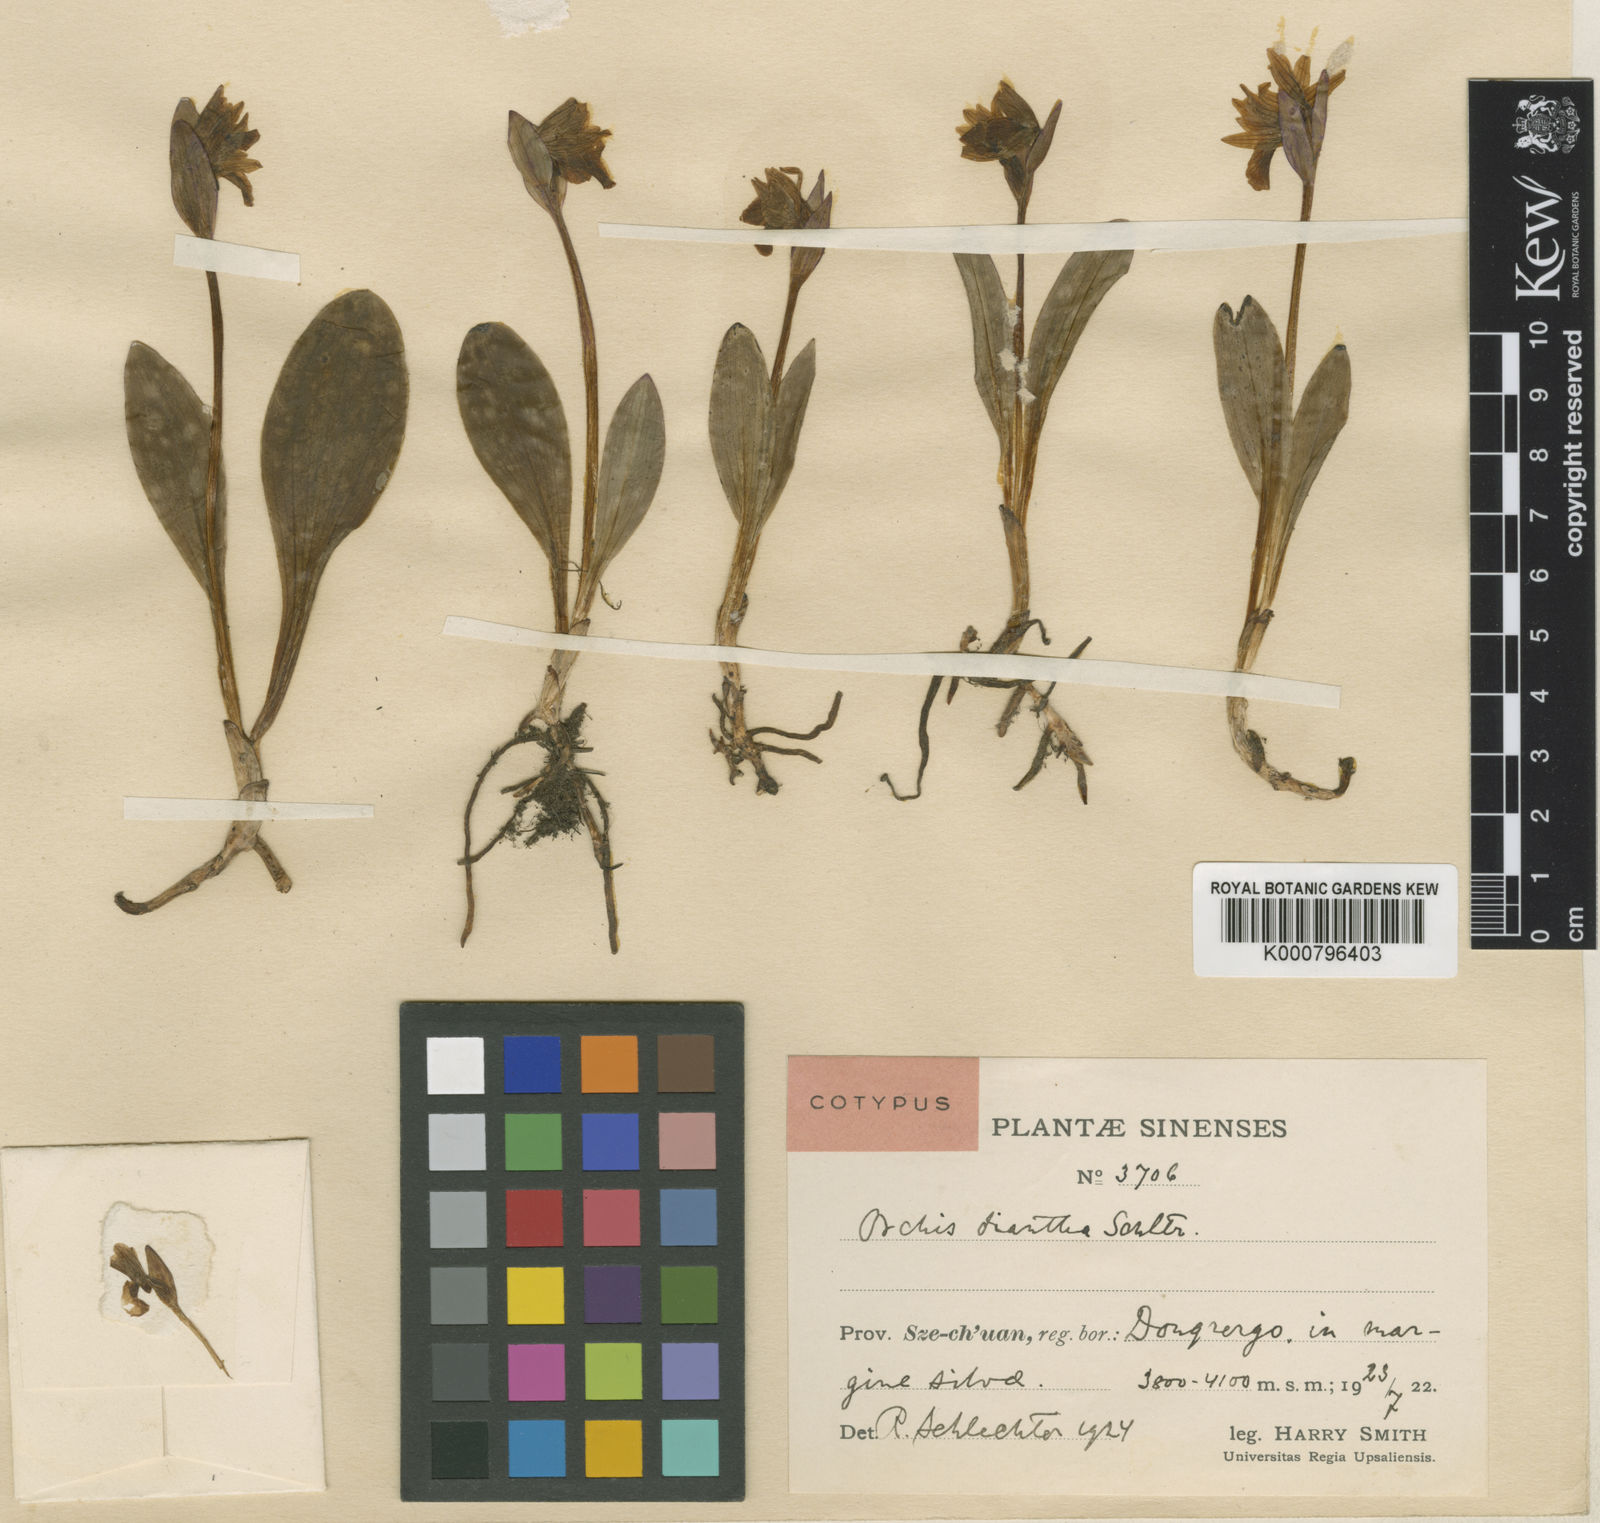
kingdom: Plantae
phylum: Tracheophyta
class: Liliopsida
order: Asparagales
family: Orchidaceae
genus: Galearis
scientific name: Galearis spathulata
